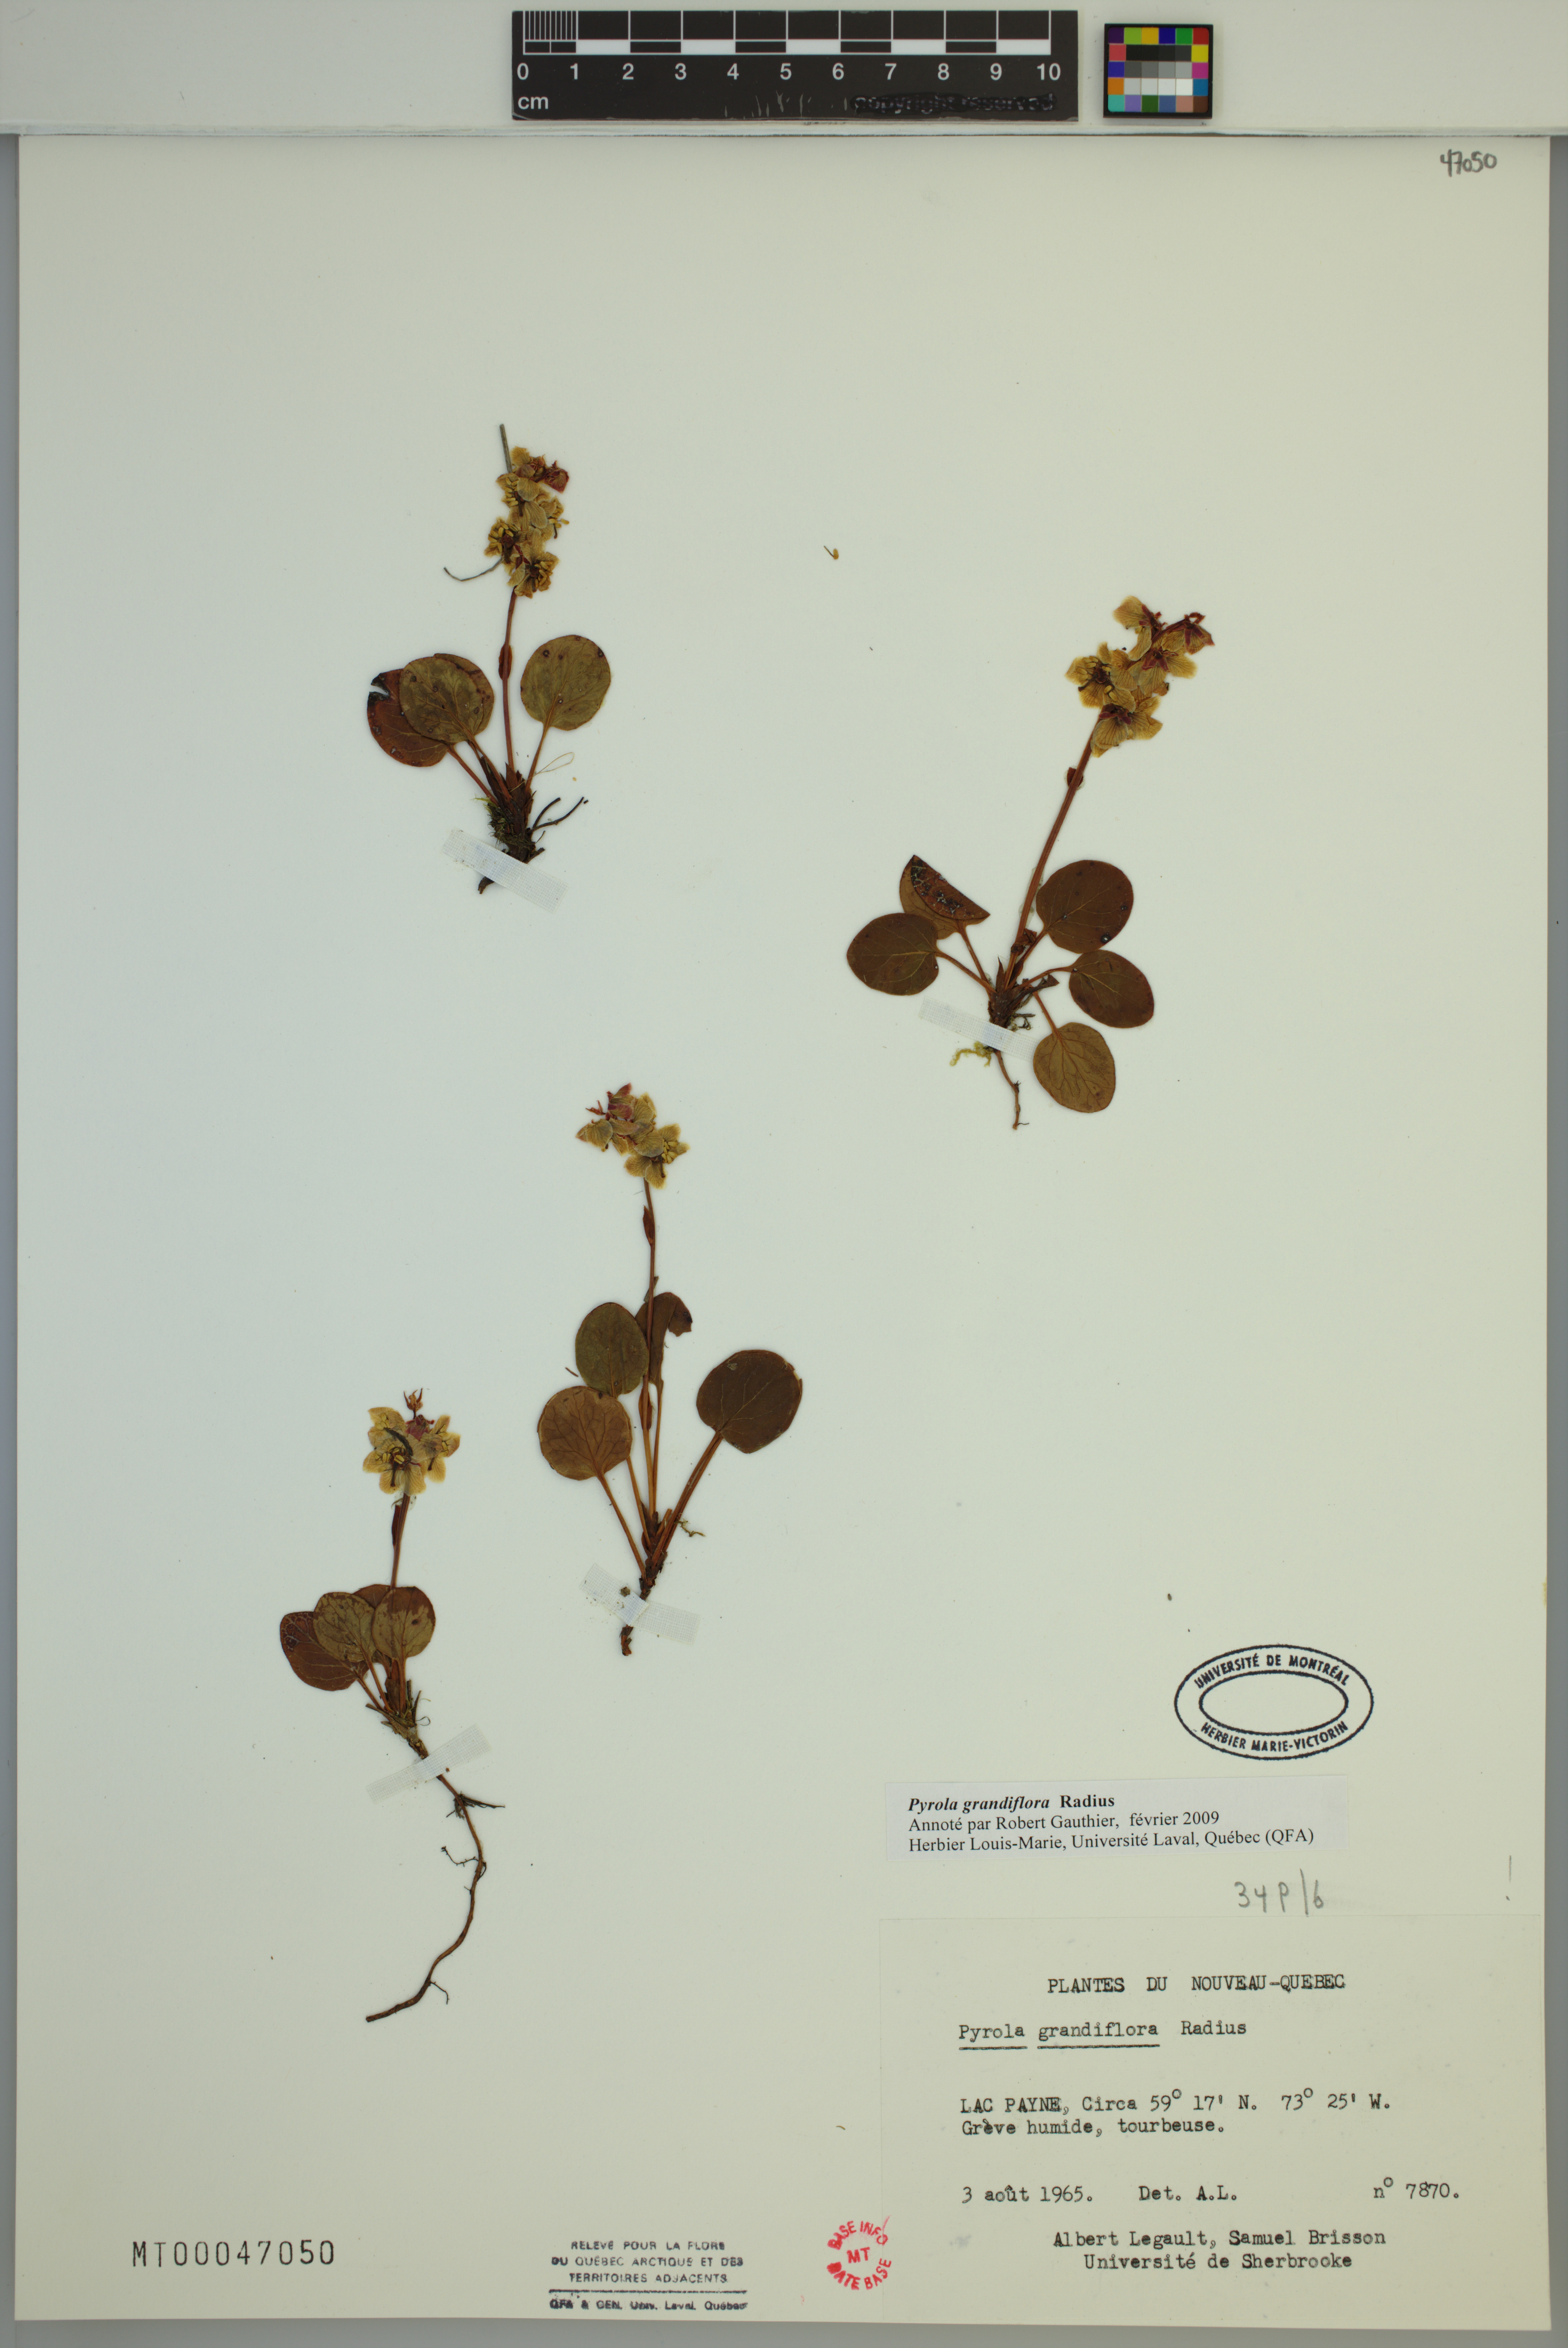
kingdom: Plantae
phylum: Tracheophyta
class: Magnoliopsida
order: Ericales
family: Ericaceae
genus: Pyrola
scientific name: Pyrola grandiflora
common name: Arctic pyrola
